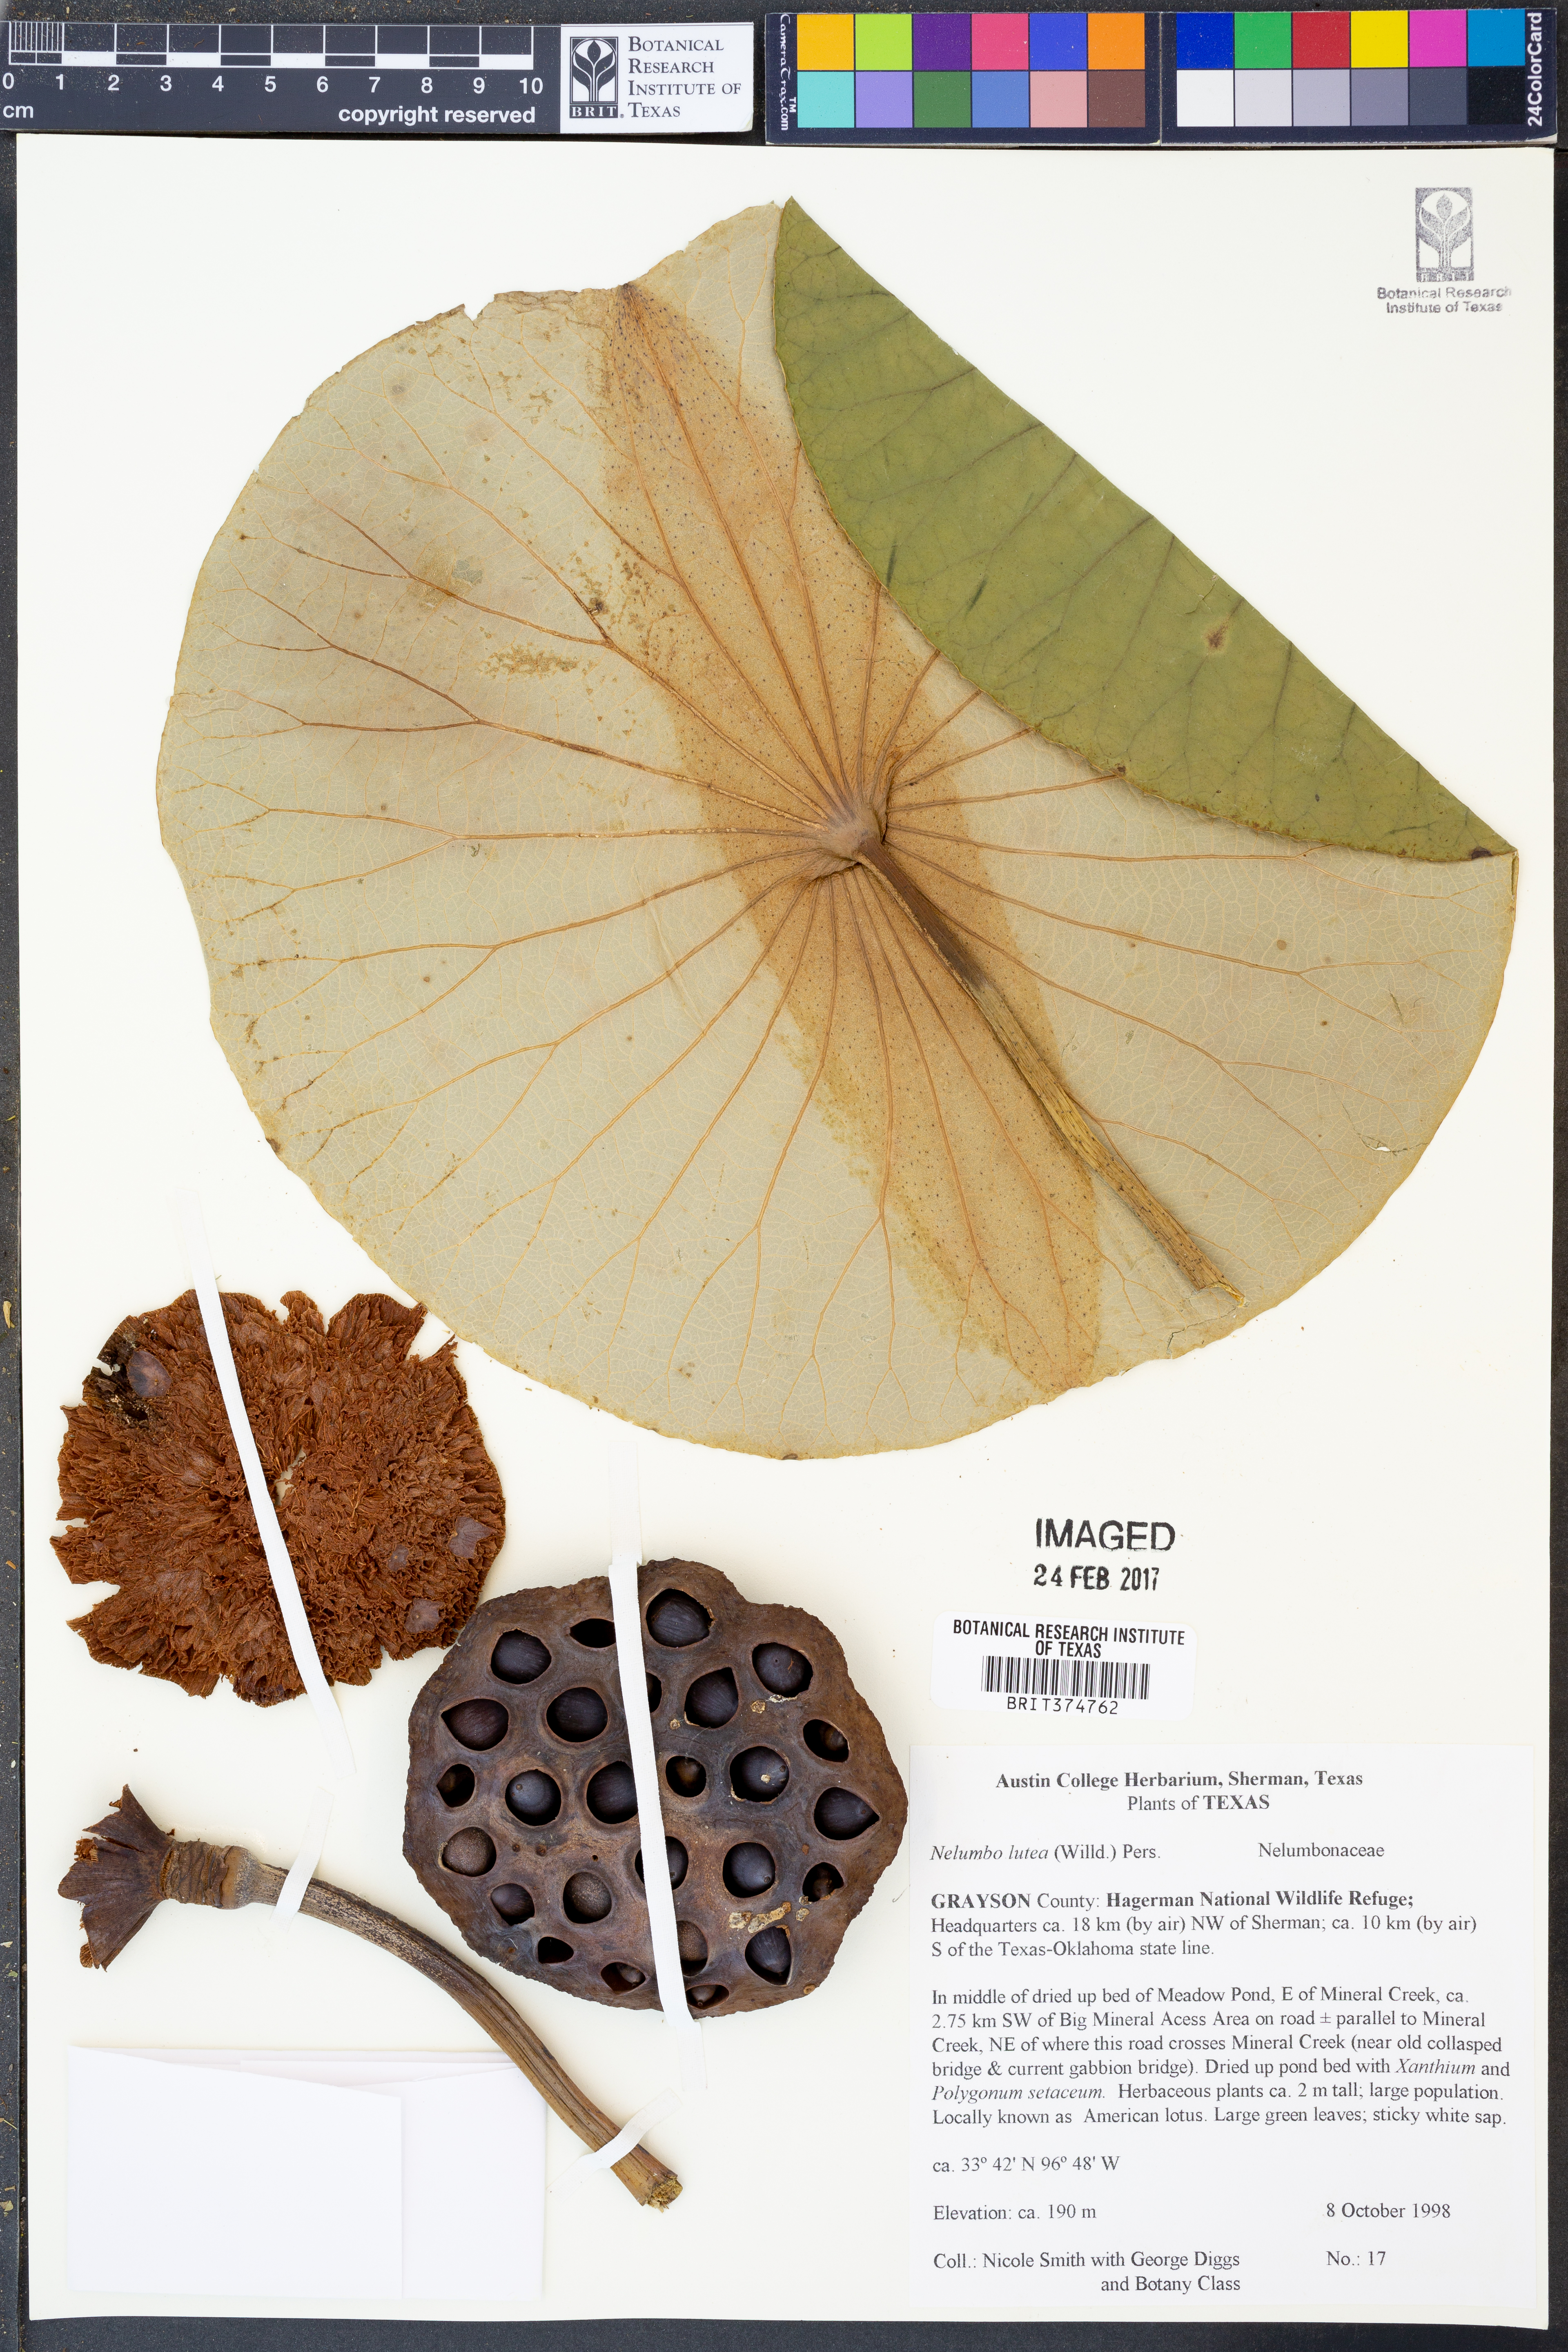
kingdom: Plantae
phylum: Tracheophyta
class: Magnoliopsida
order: Proteales
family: Nelumbonaceae
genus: Nelumbo
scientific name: Nelumbo lutea
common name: American lotus
